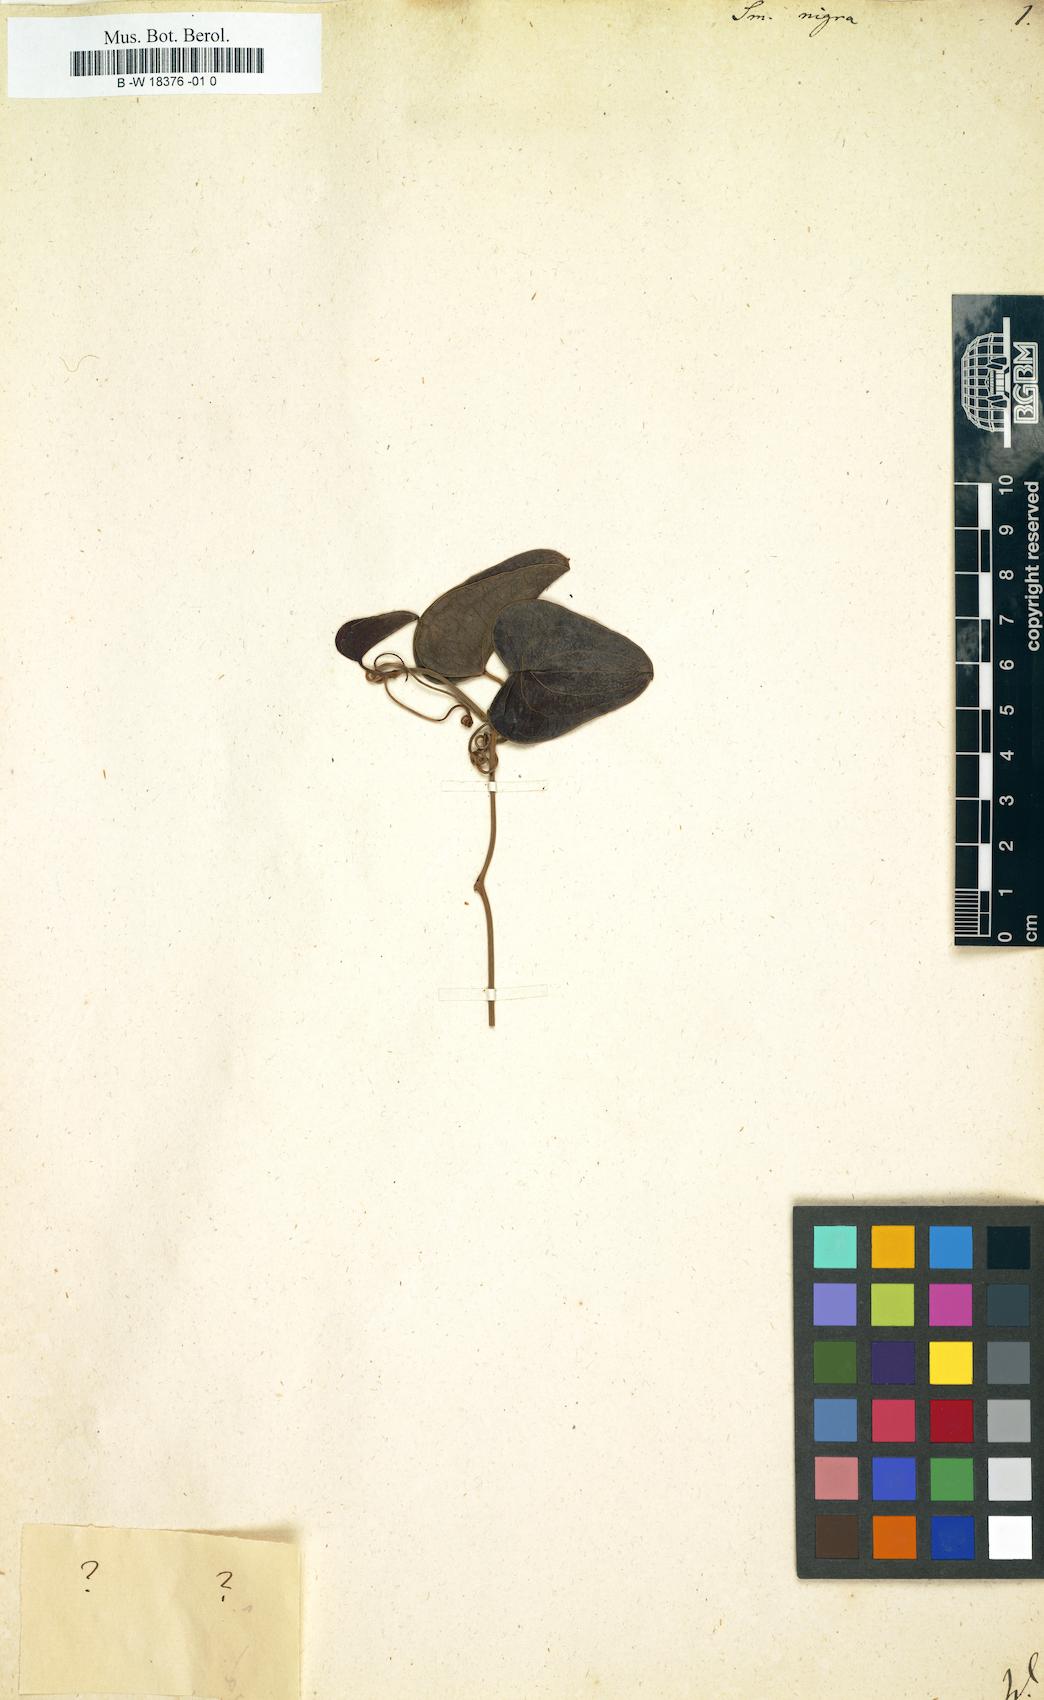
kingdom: Plantae
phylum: Tracheophyta
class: Liliopsida
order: Liliales
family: Smilacaceae
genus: Smilax
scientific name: Smilax aspera
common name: Common smilax
